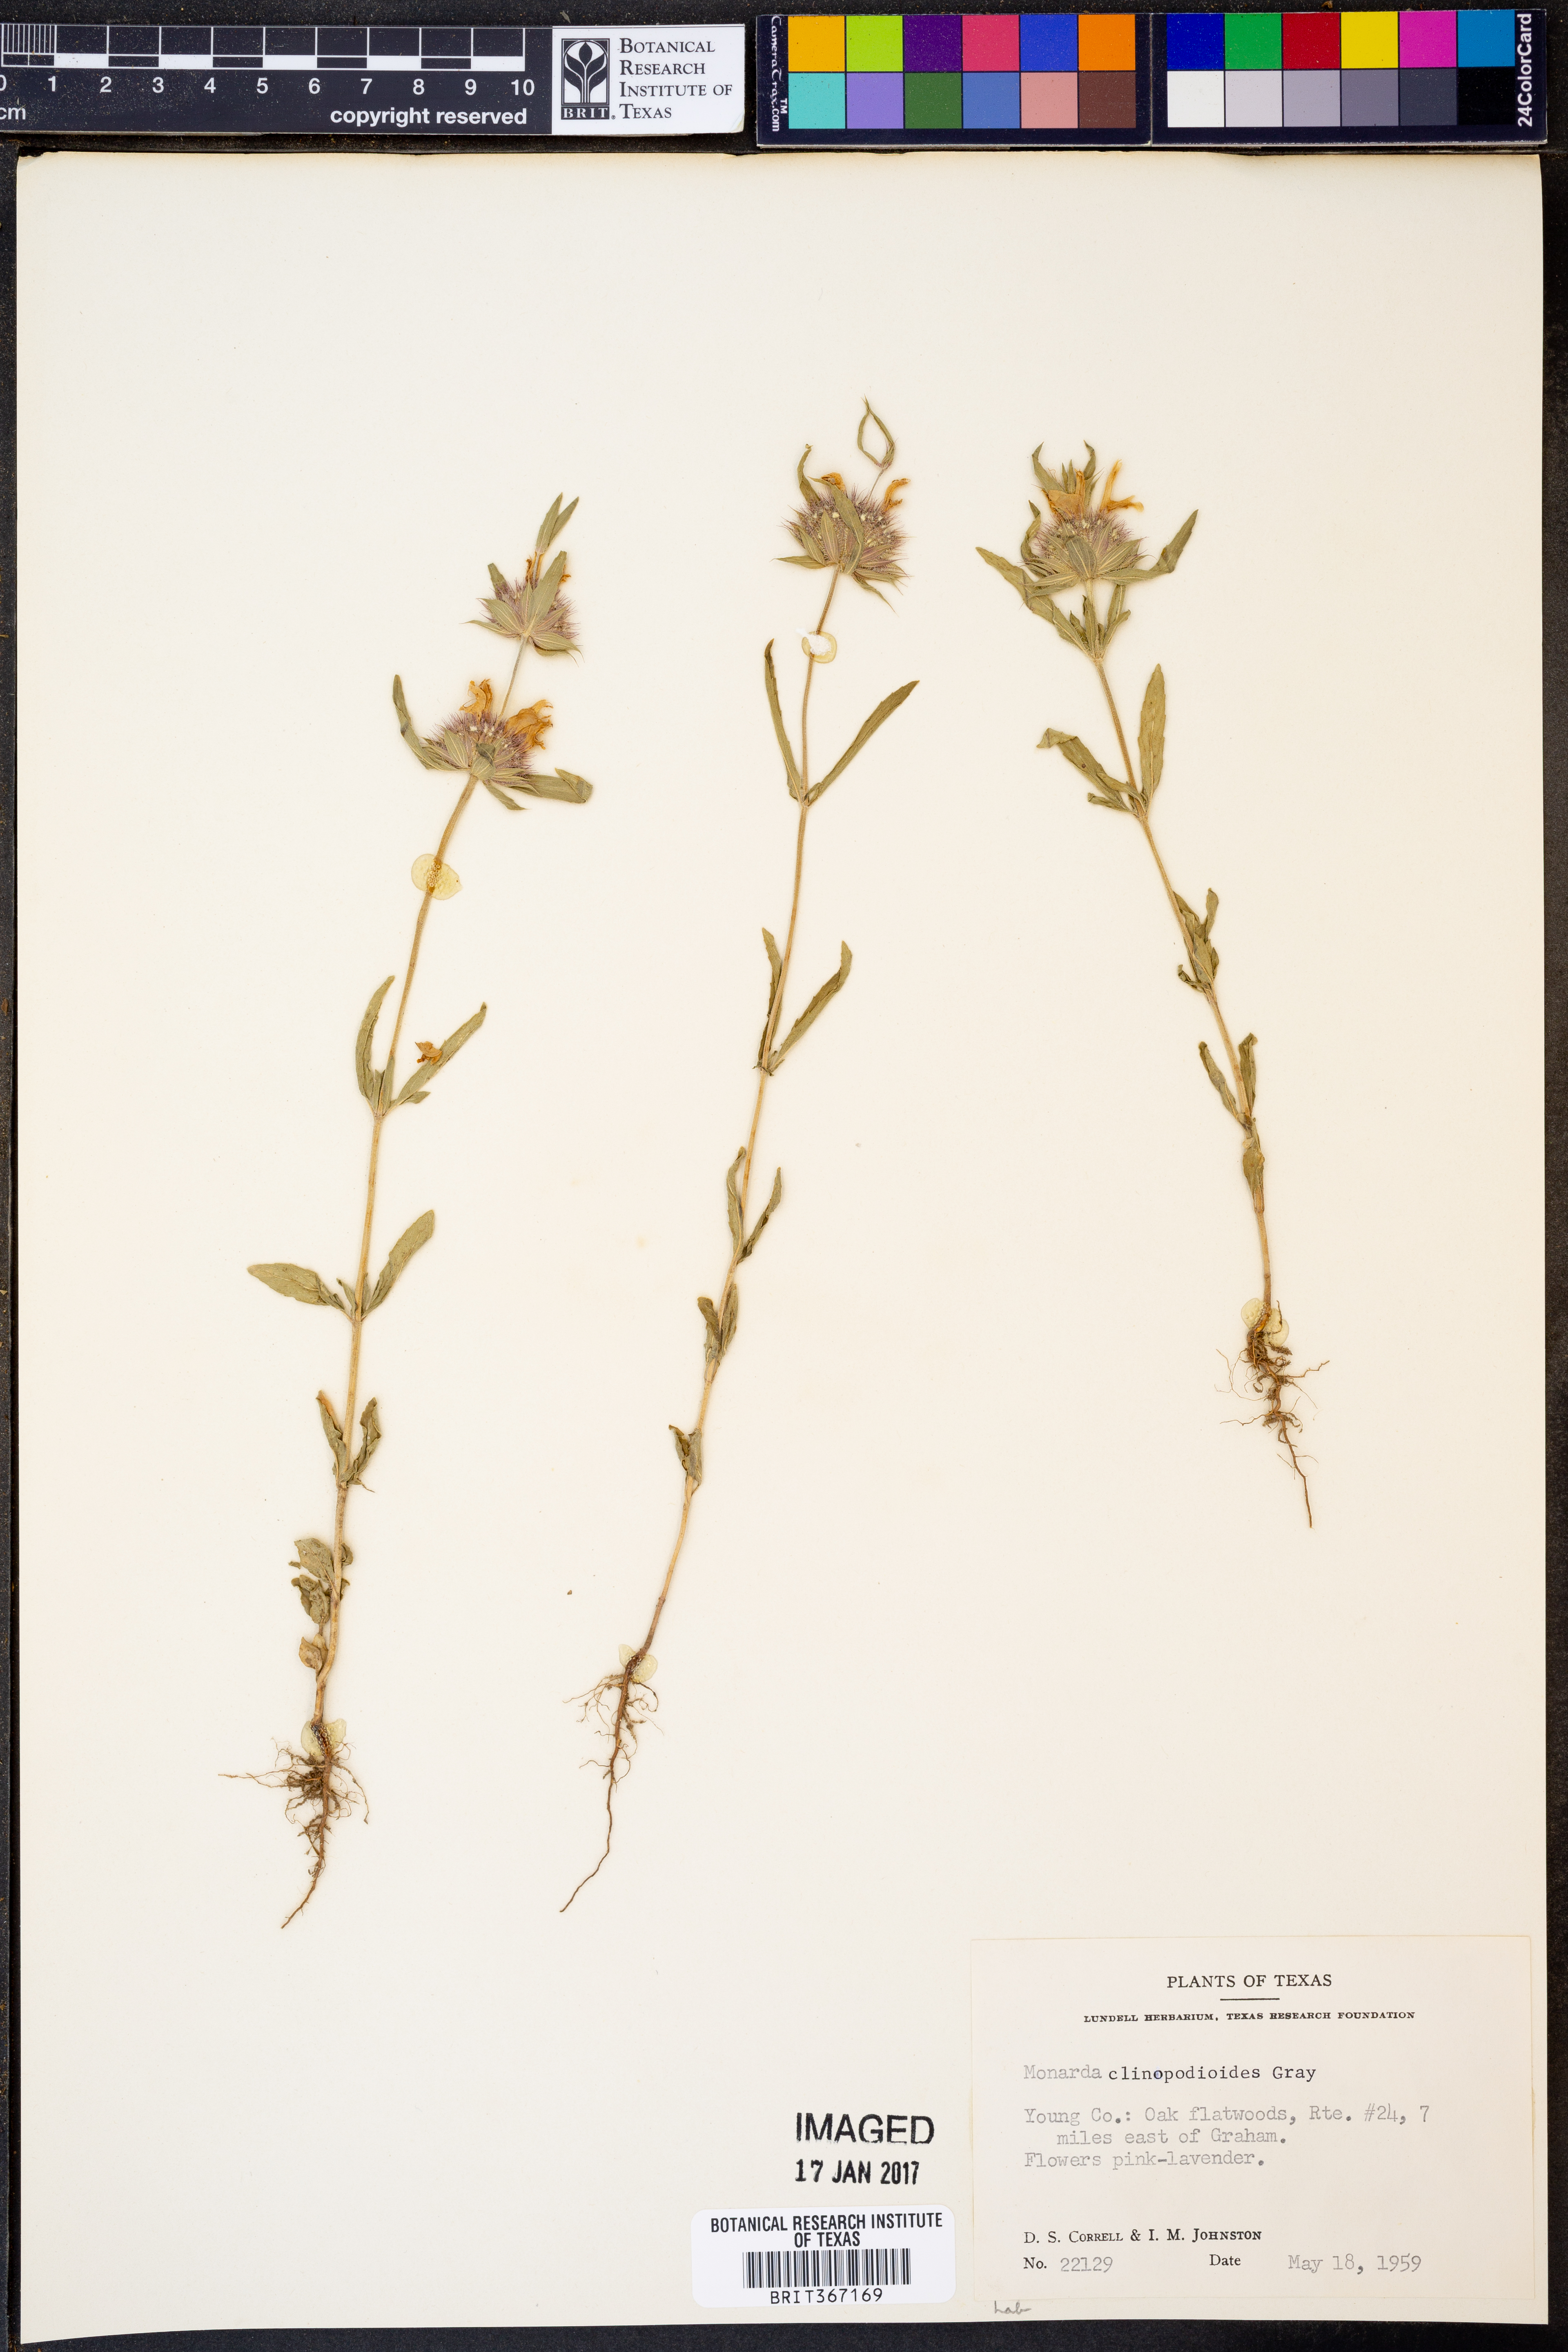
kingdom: Plantae
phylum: Tracheophyta
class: Magnoliopsida
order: Lamiales
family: Lamiaceae
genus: Monarda
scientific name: Monarda clinopodioides
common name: Basil beebalm
